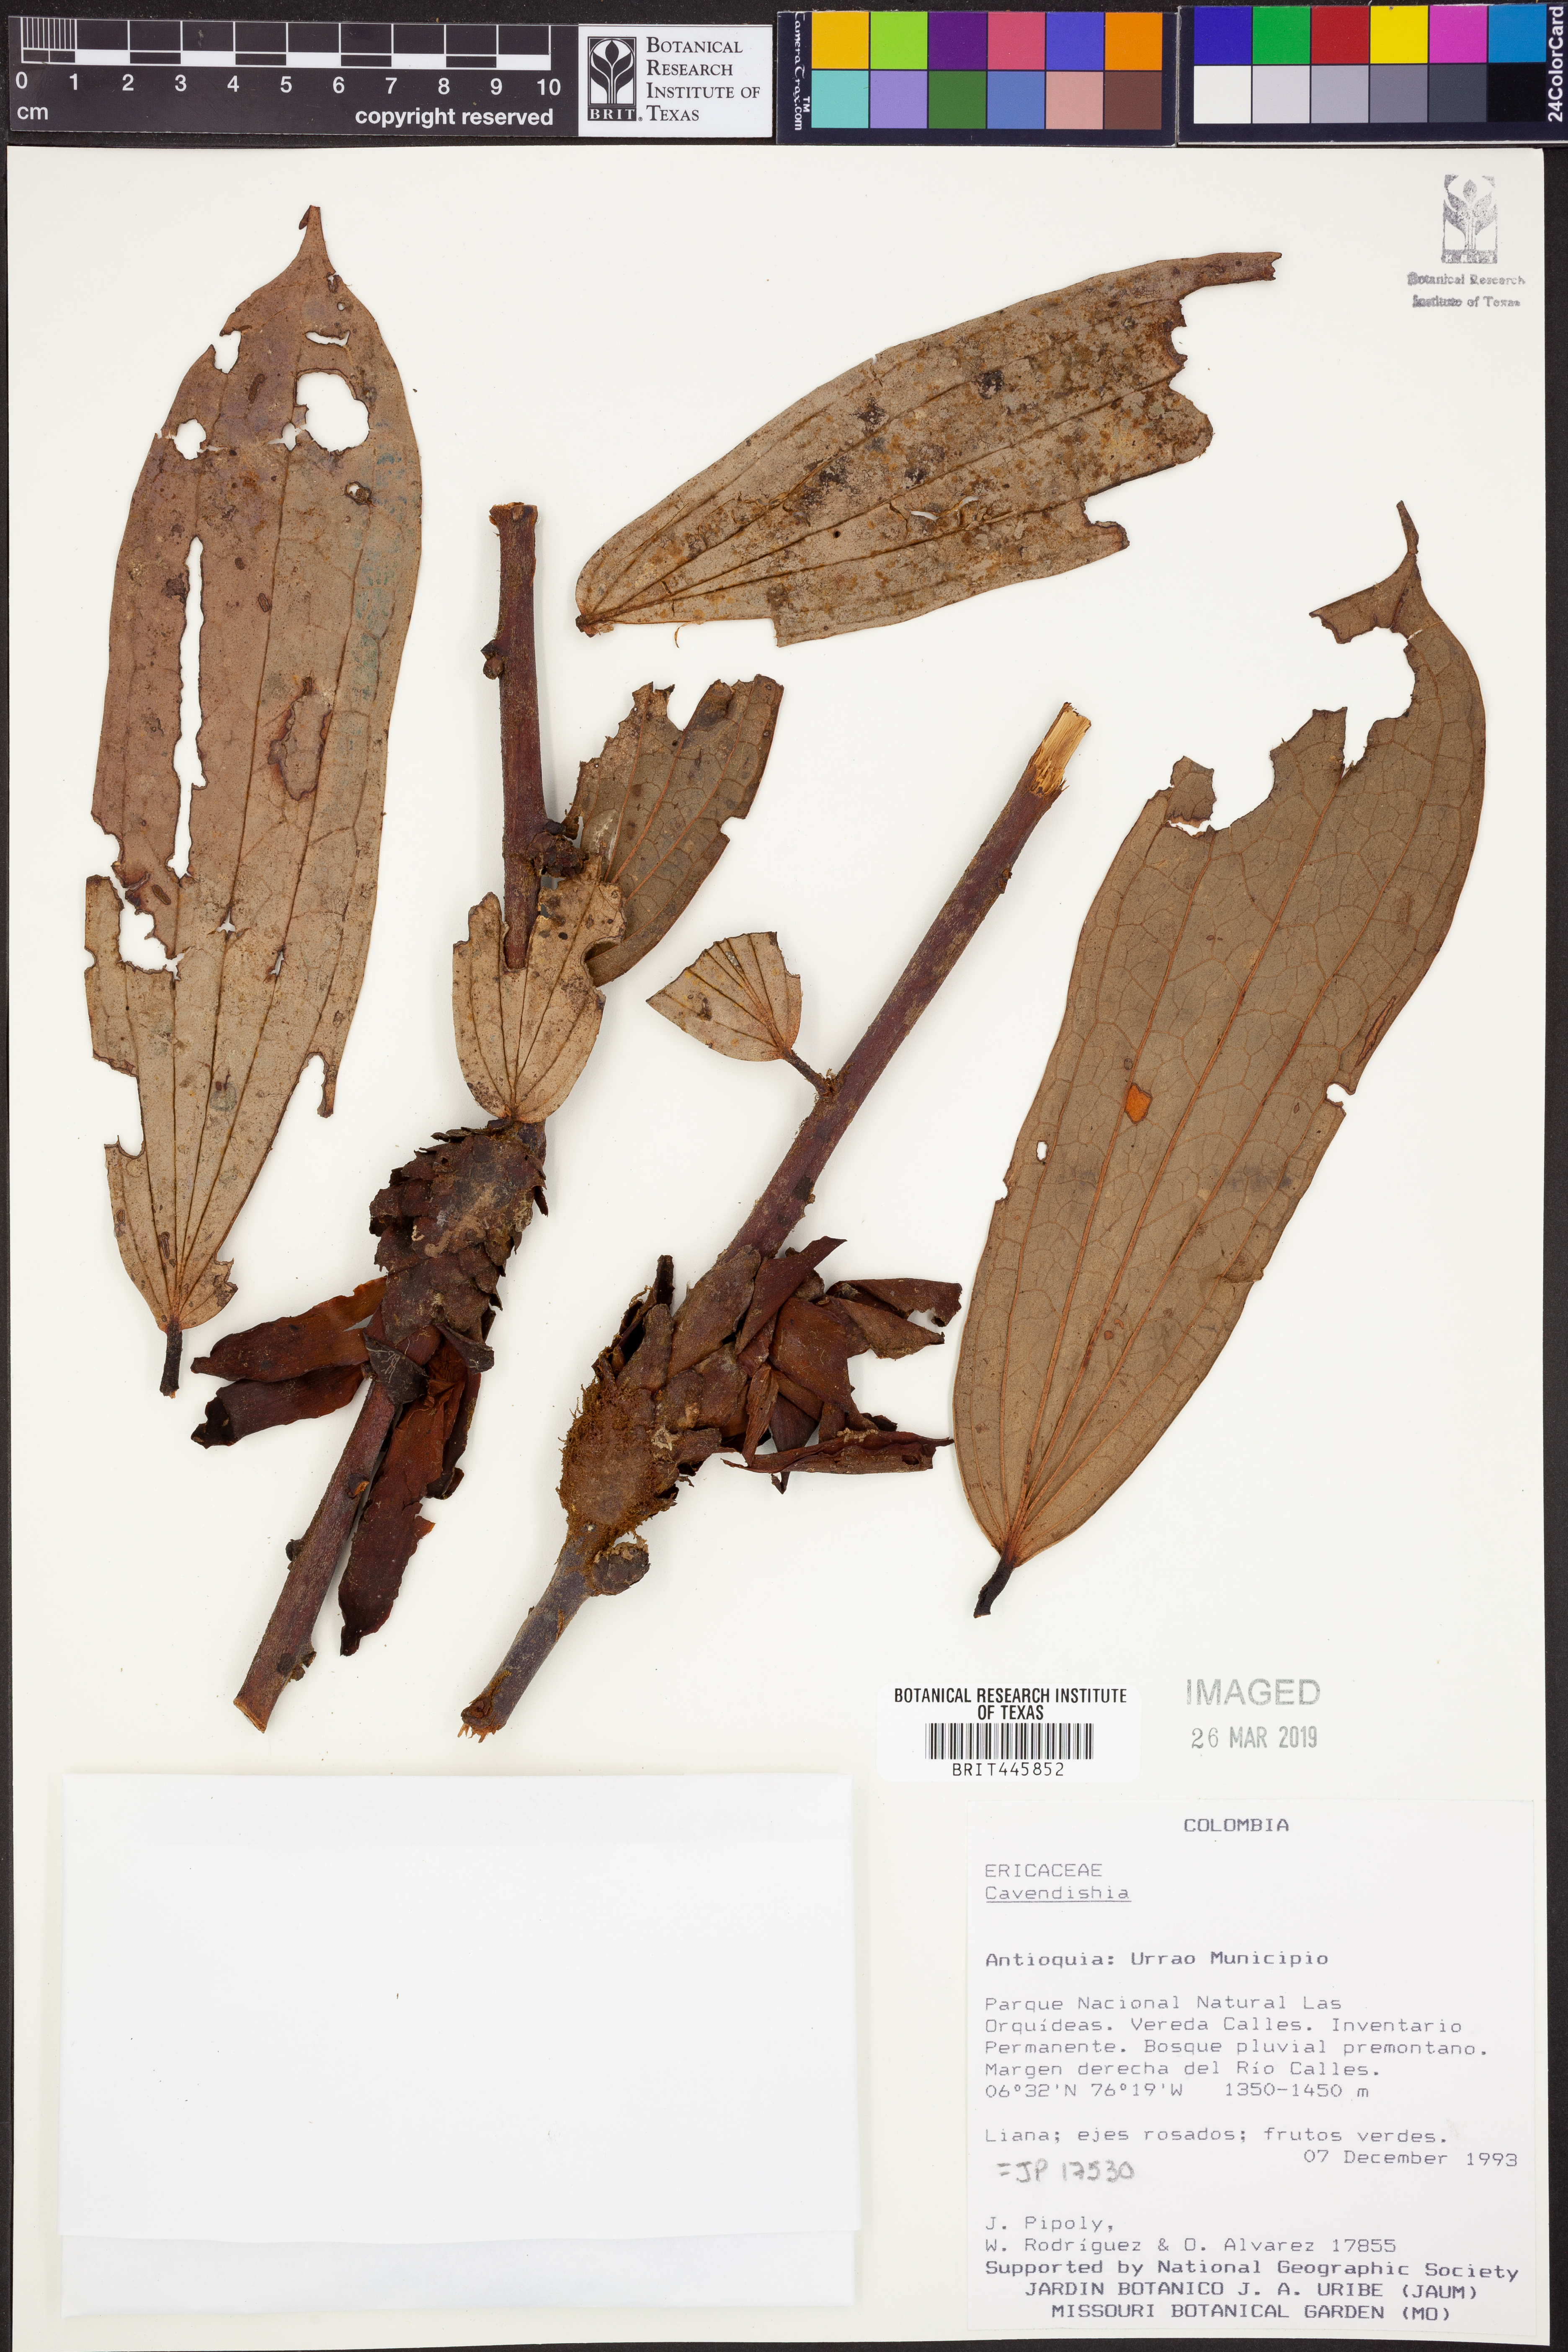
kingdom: Plantae
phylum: Tracheophyta
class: Magnoliopsida
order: Ericales
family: Ericaceae
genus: Cavendishia
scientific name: Cavendishia
